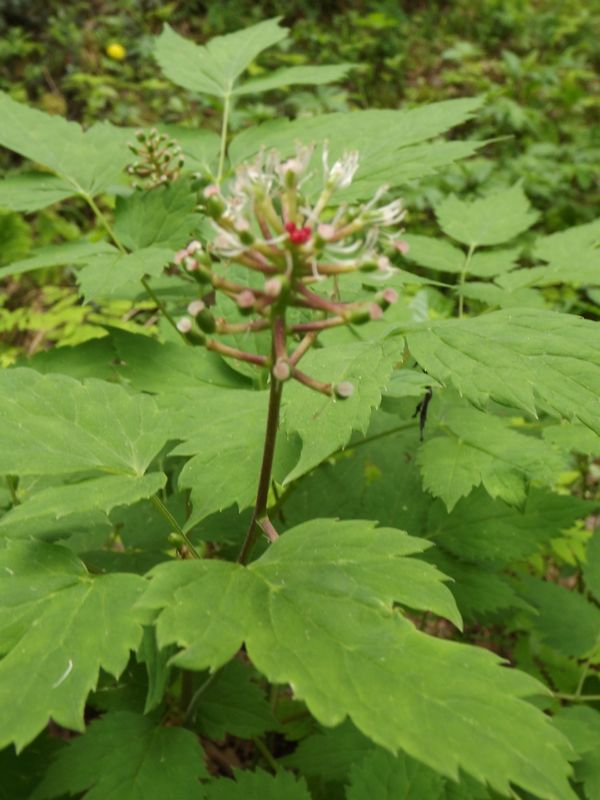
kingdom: Plantae
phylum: Tracheophyta
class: Magnoliopsida
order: Ranunculales
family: Ranunculaceae
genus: Actaea
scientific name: Actaea erythrocarpa
